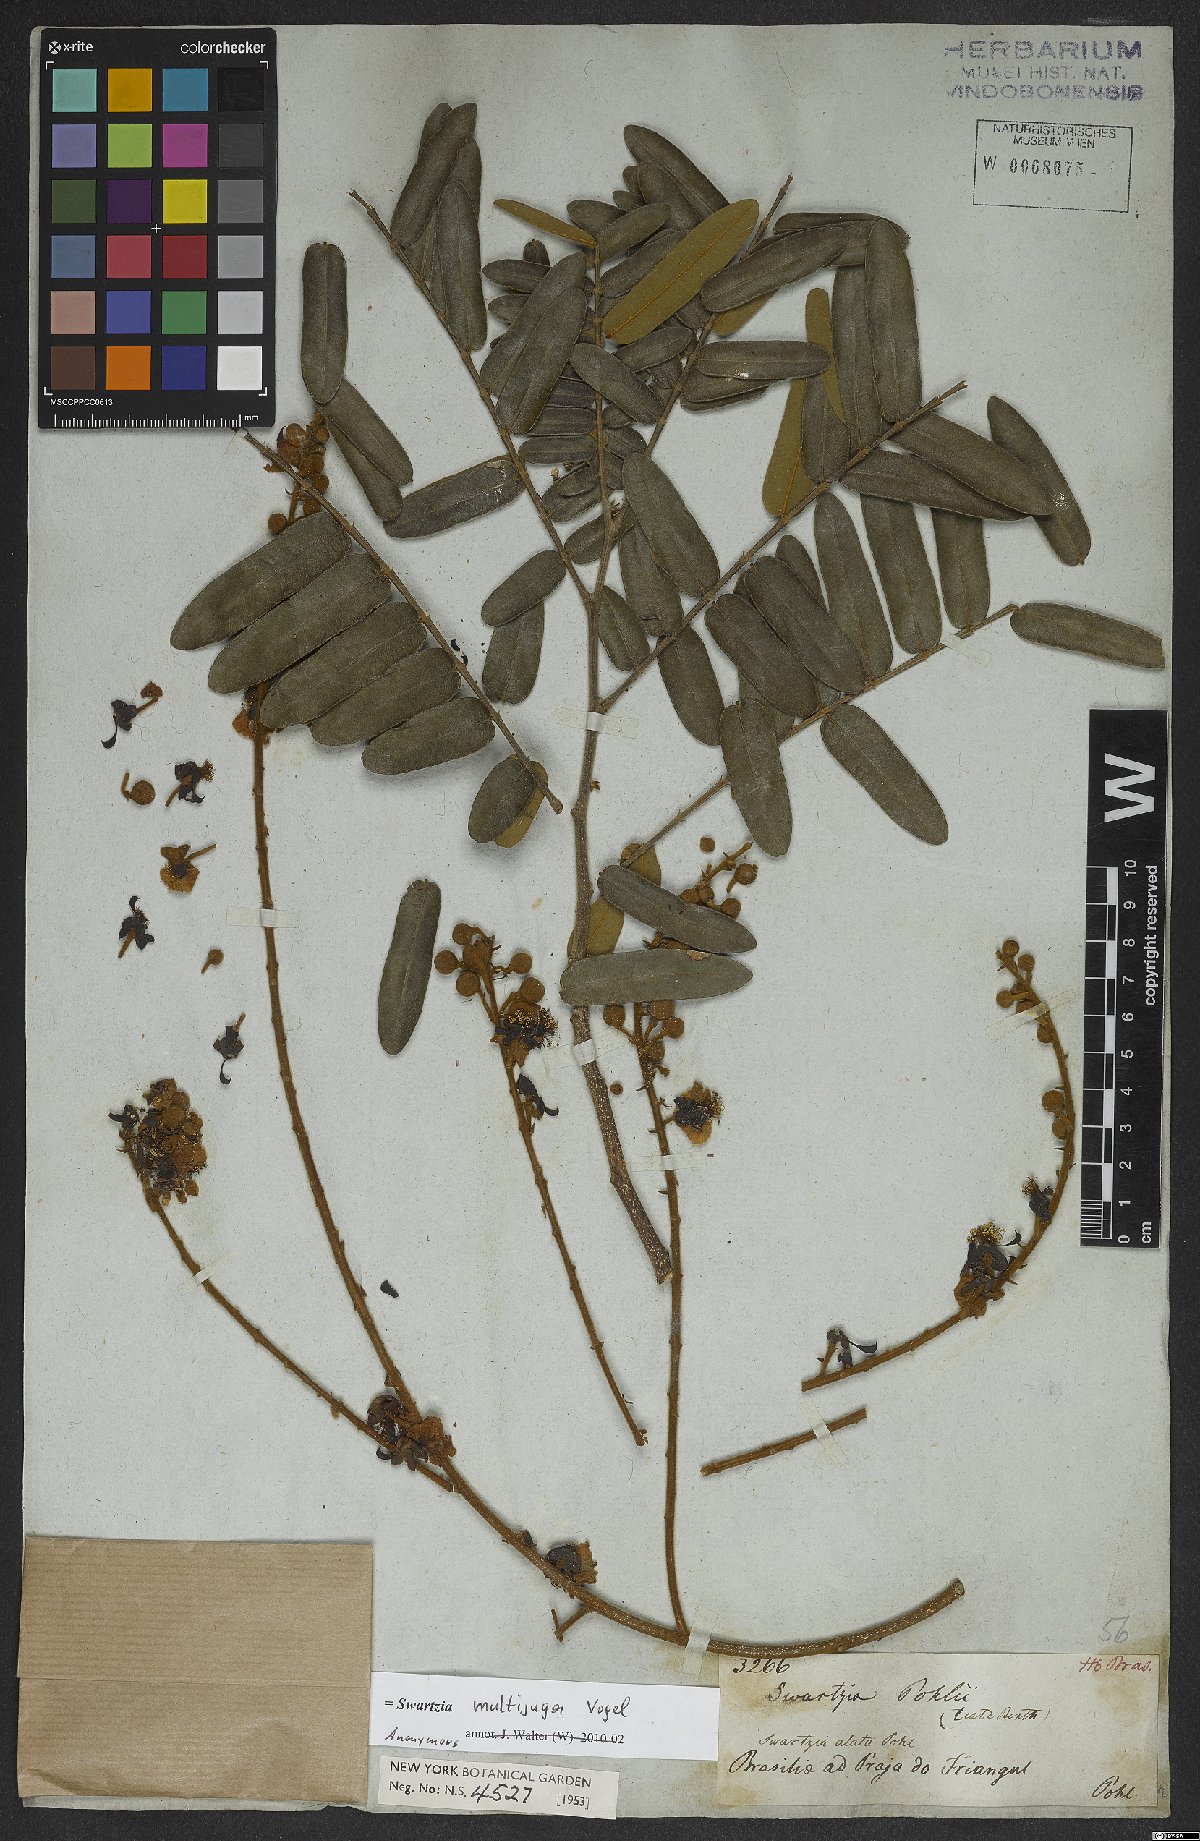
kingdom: Plantae
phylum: Tracheophyta
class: Magnoliopsida
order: Fabales
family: Fabaceae
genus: Swartzia
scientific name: Swartzia multijuga
